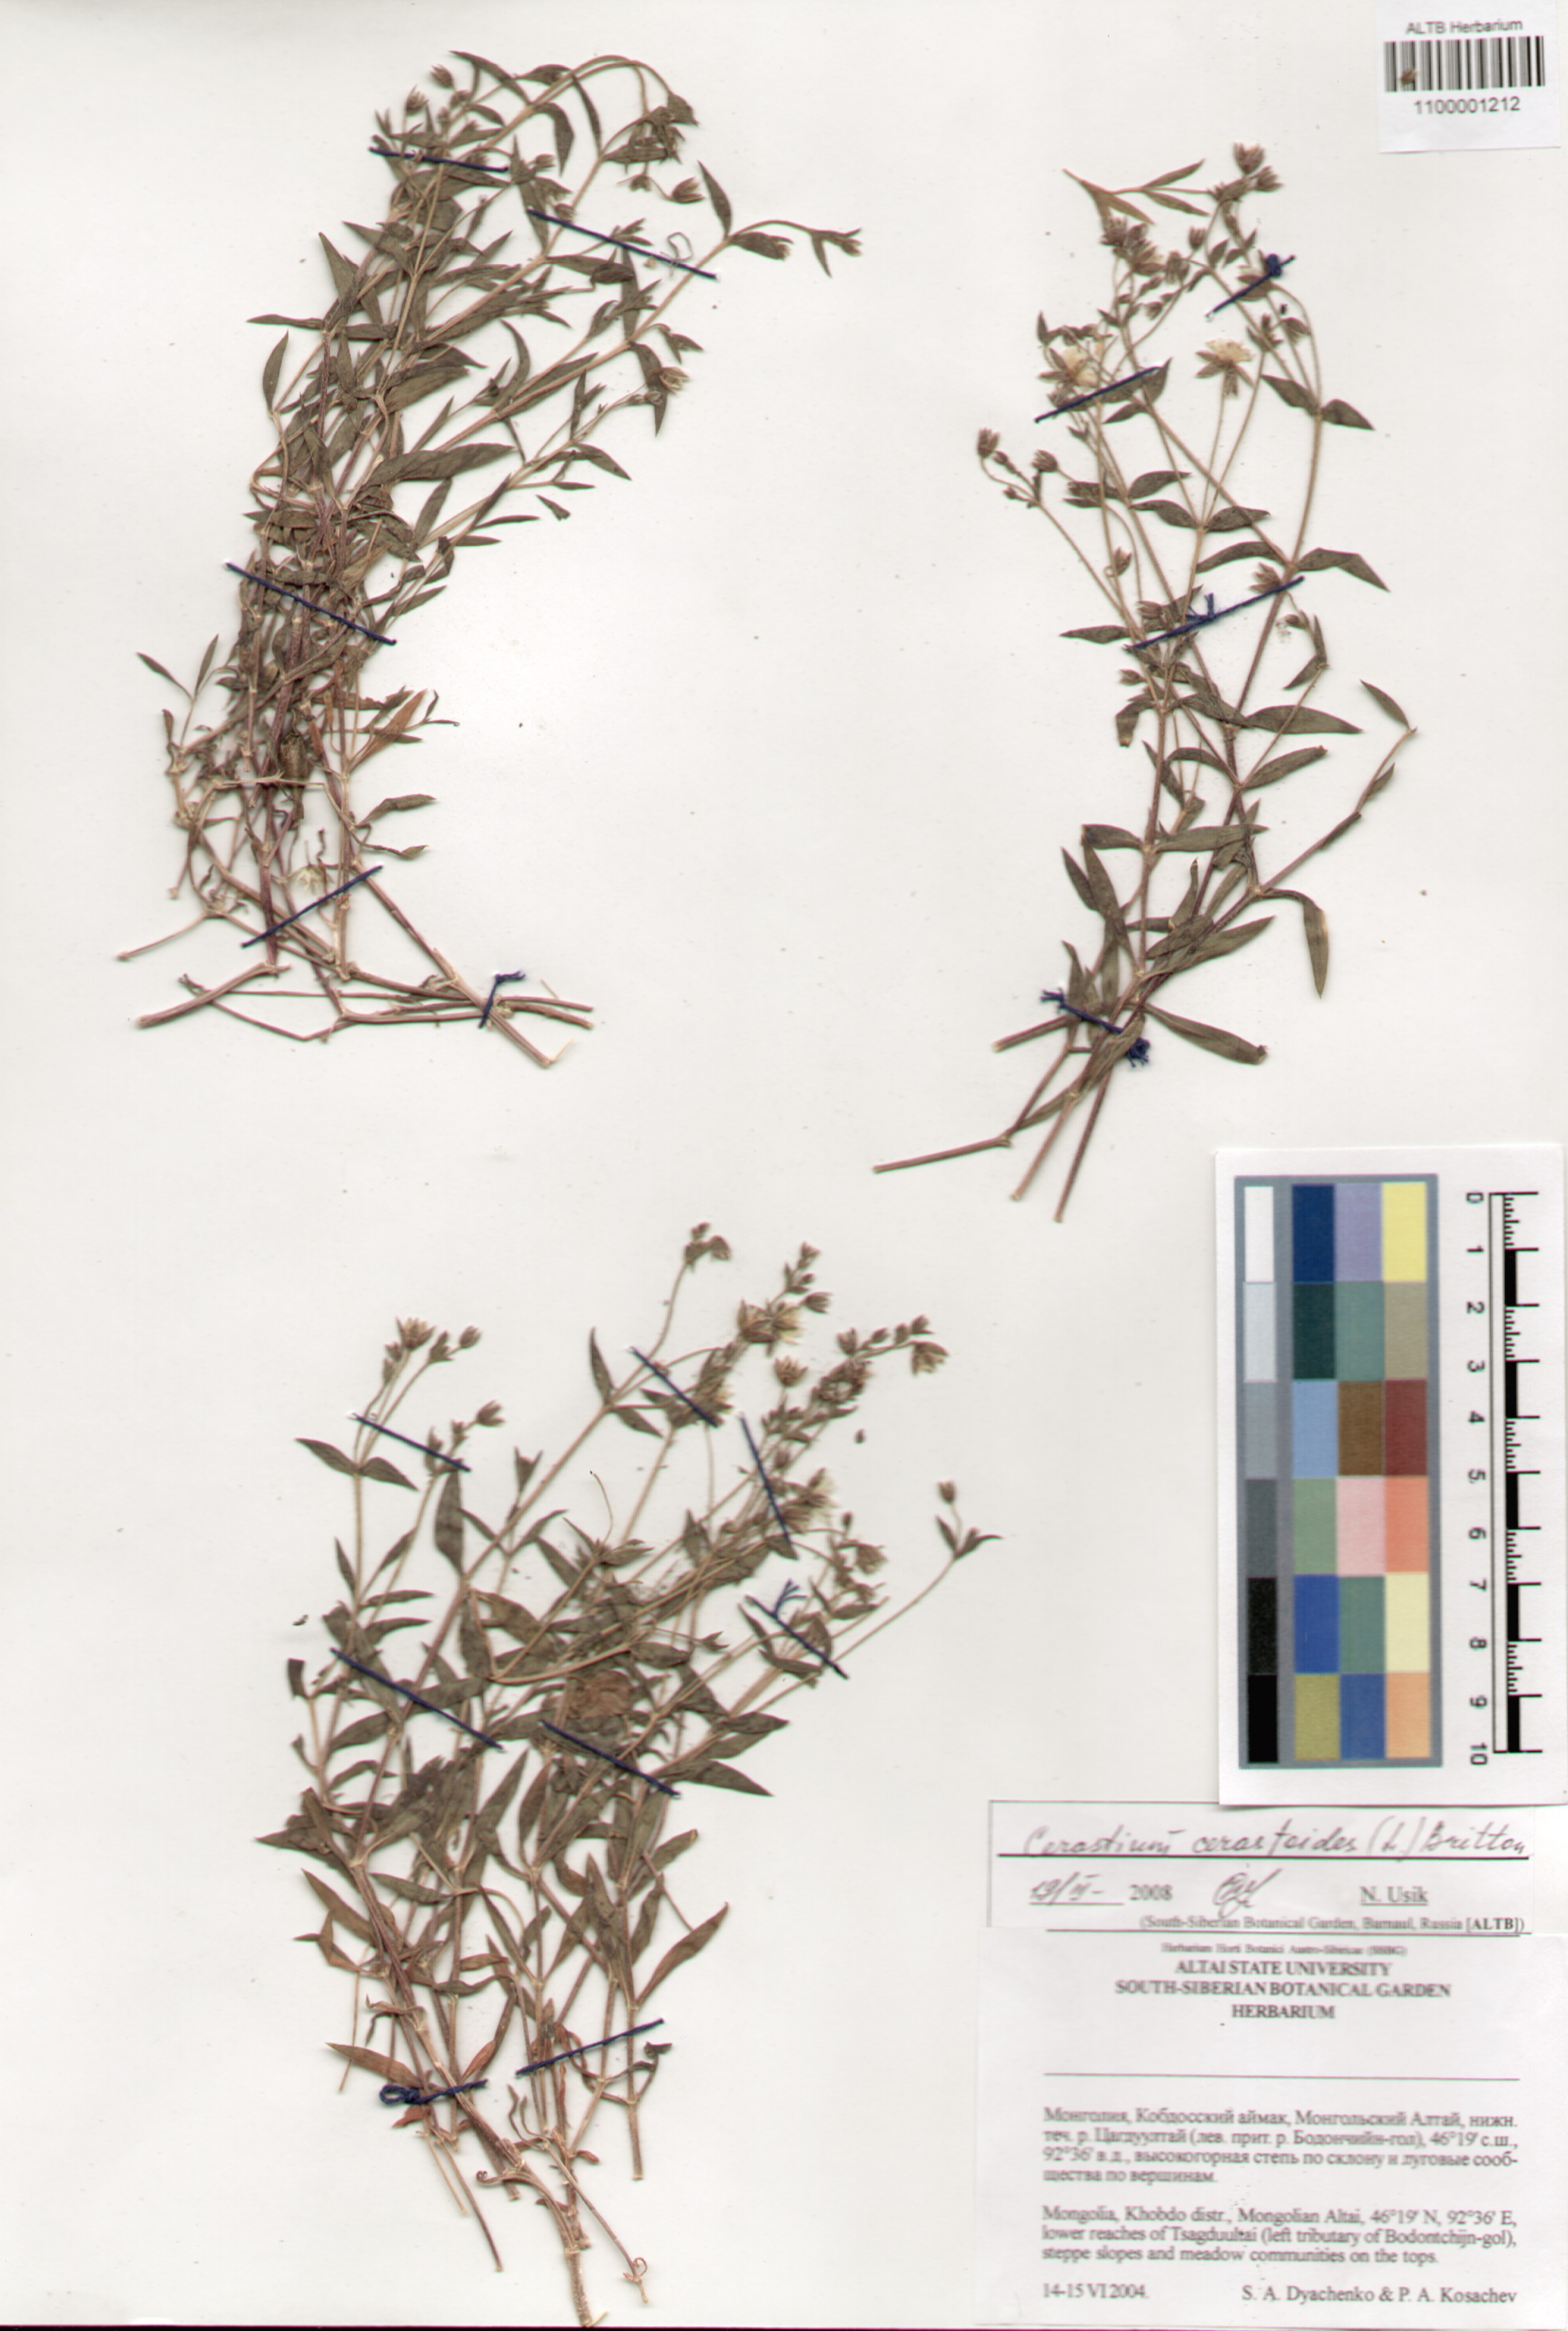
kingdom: Plantae
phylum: Tracheophyta
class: Magnoliopsida
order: Caryophyllales
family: Caryophyllaceae
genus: Dichodon
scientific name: Dichodon cerastoides
